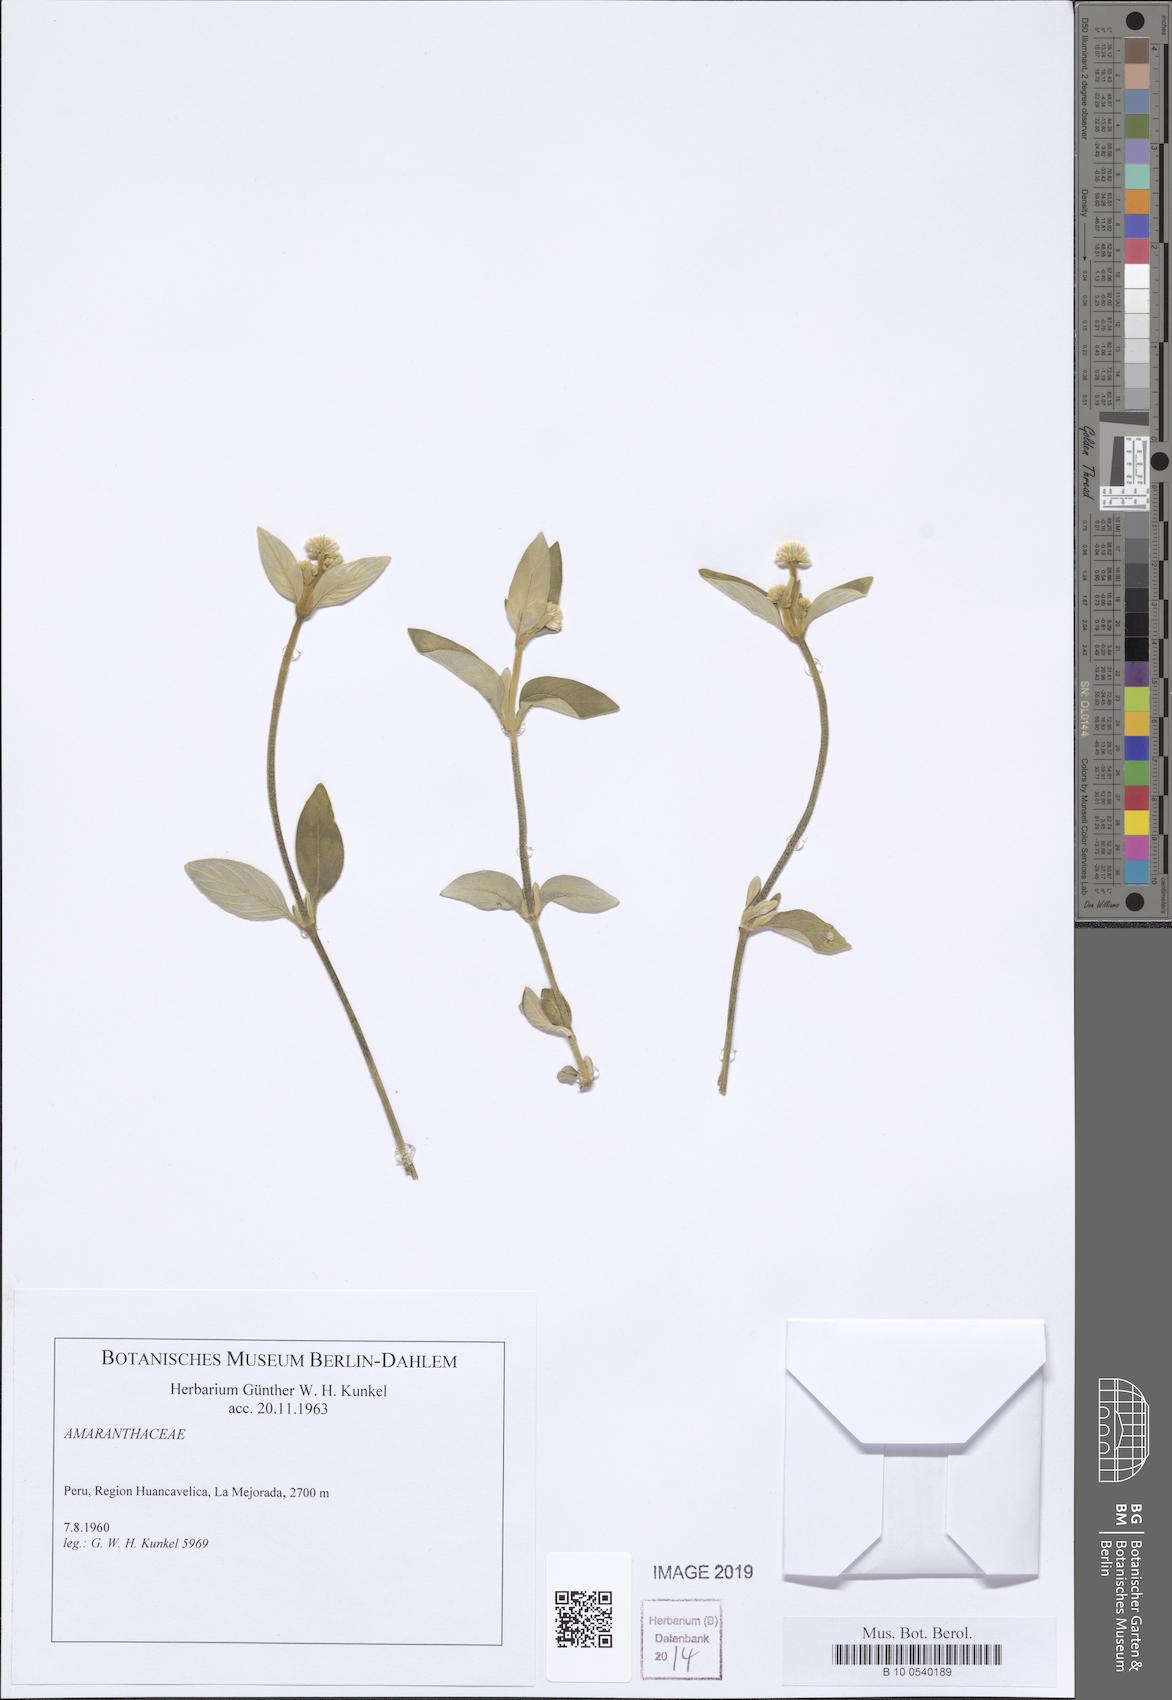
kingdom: Plantae
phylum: Tracheophyta
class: Magnoliopsida
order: Caryophyllales
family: Amaranthaceae
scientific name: Amaranthaceae
